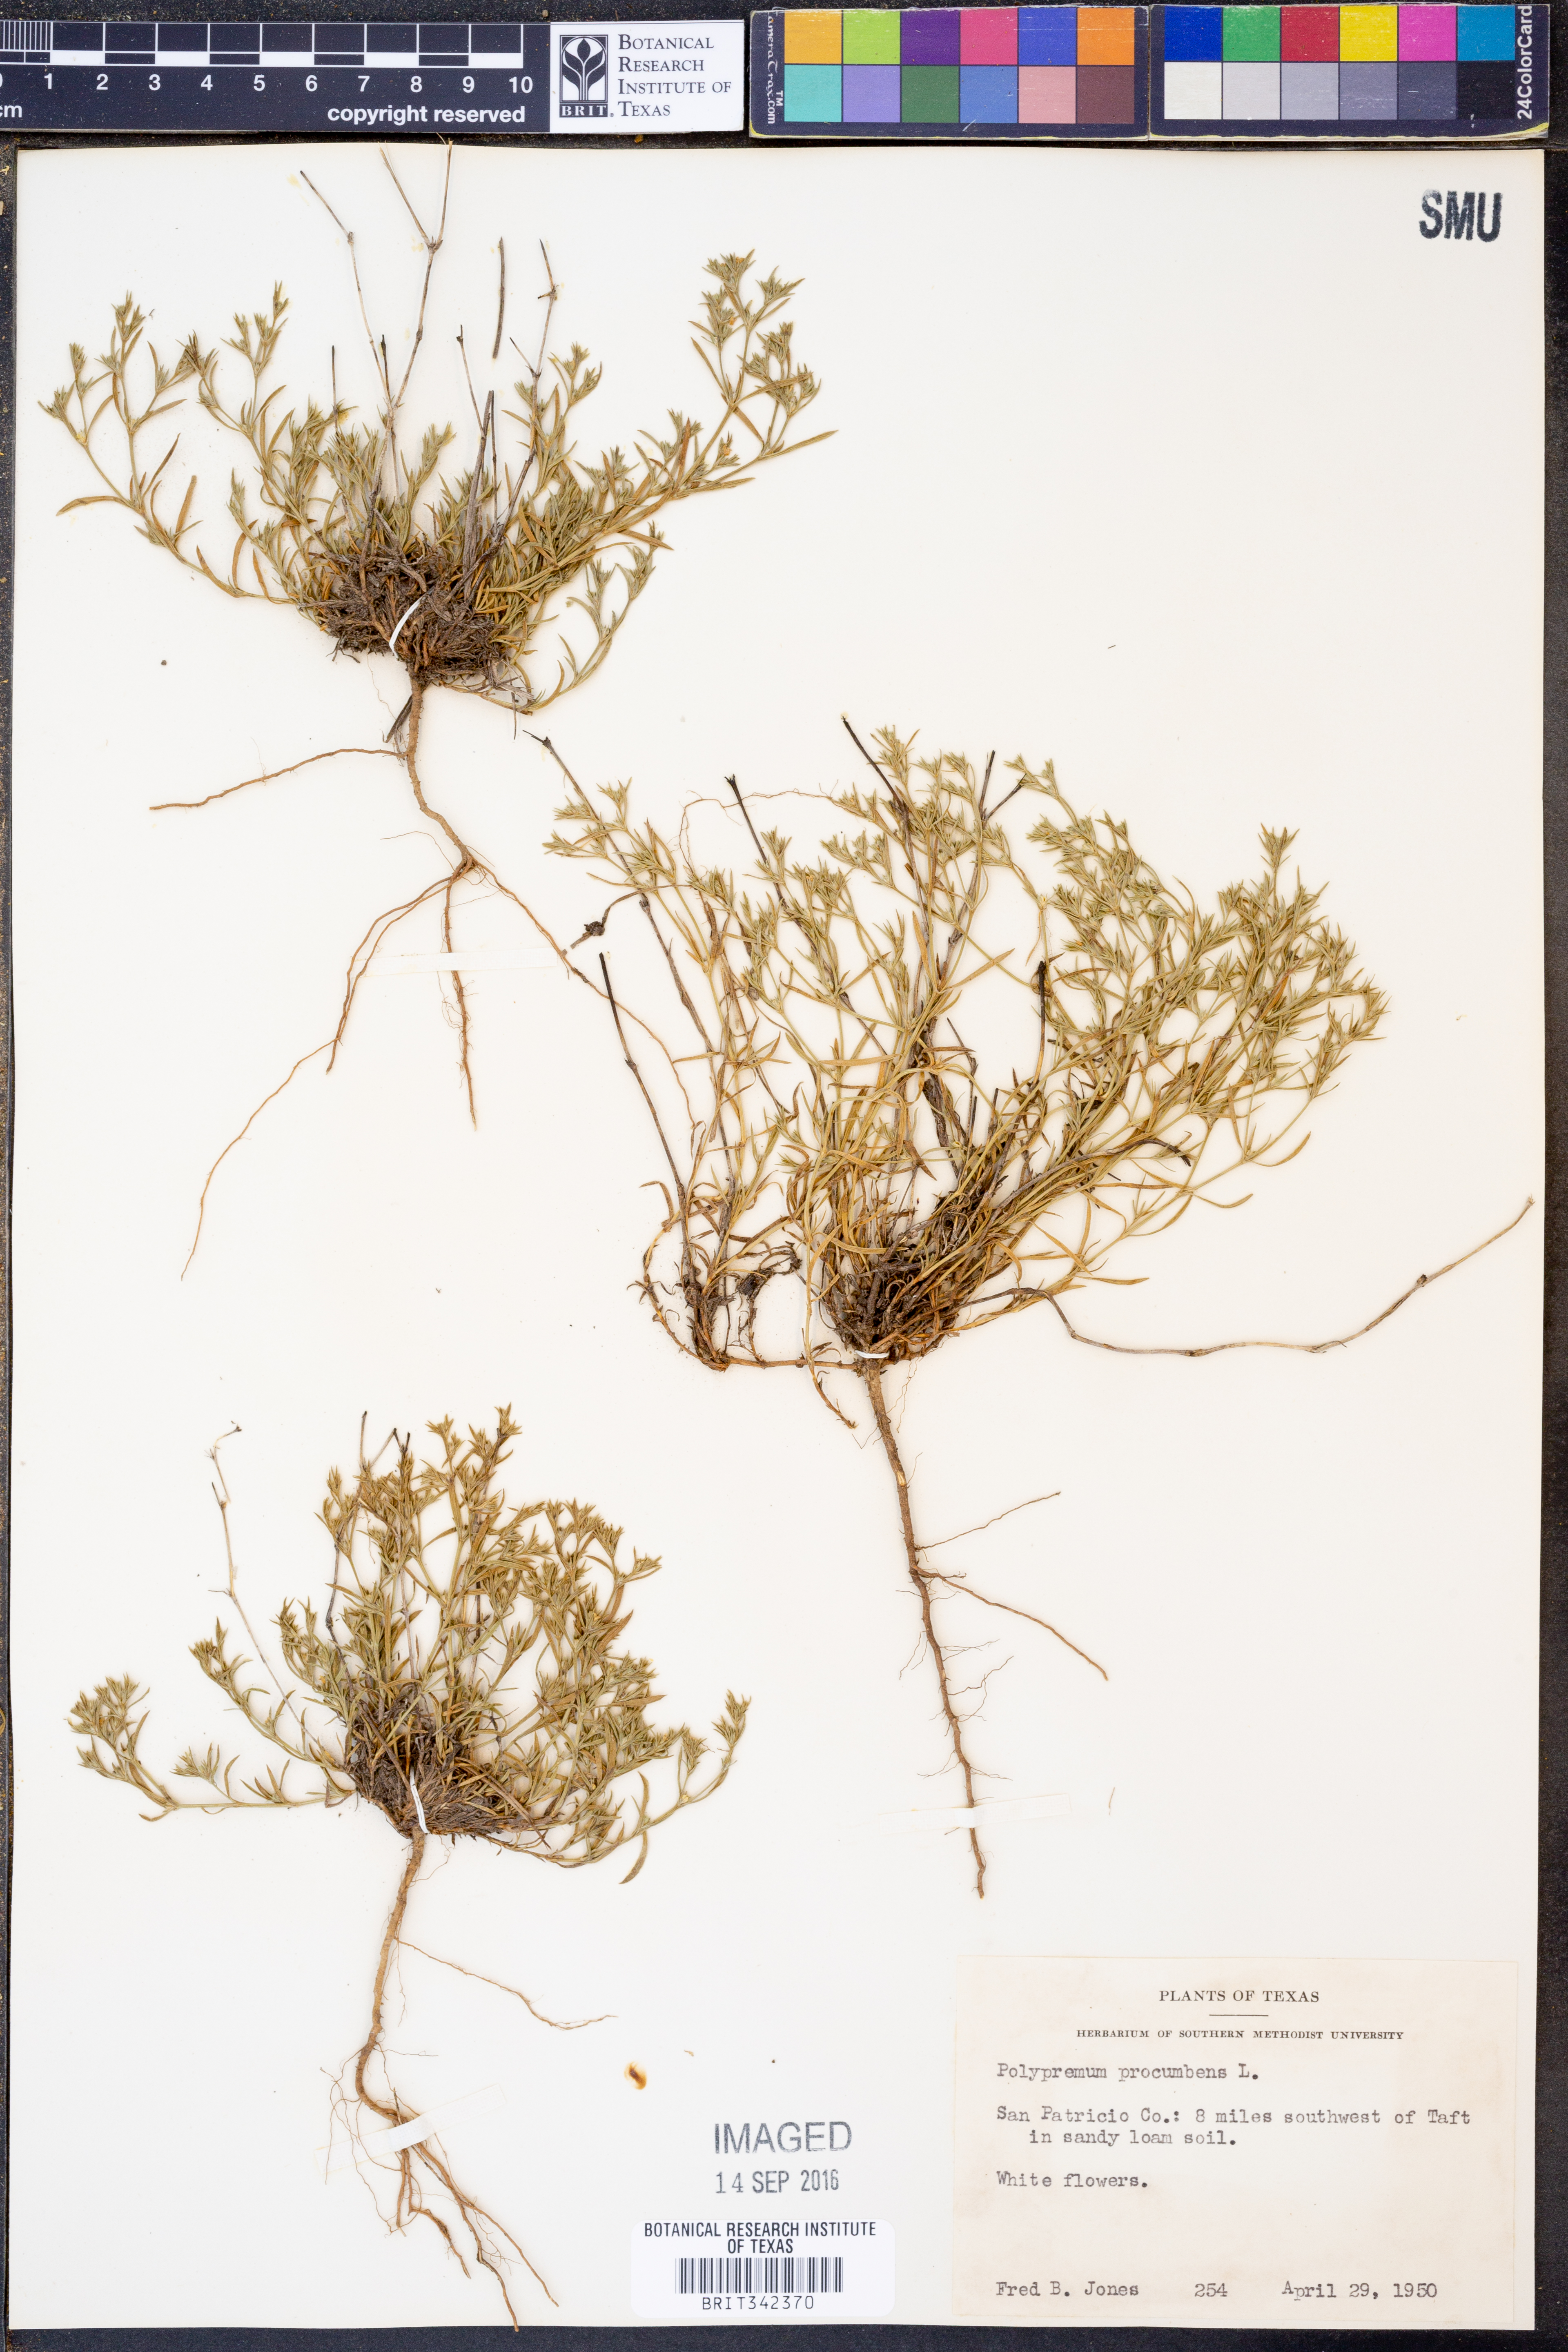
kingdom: Plantae
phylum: Tracheophyta
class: Magnoliopsida
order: Lamiales
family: Tetrachondraceae
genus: Polypremum
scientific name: Polypremum procumbens
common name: Juniper-leaf
